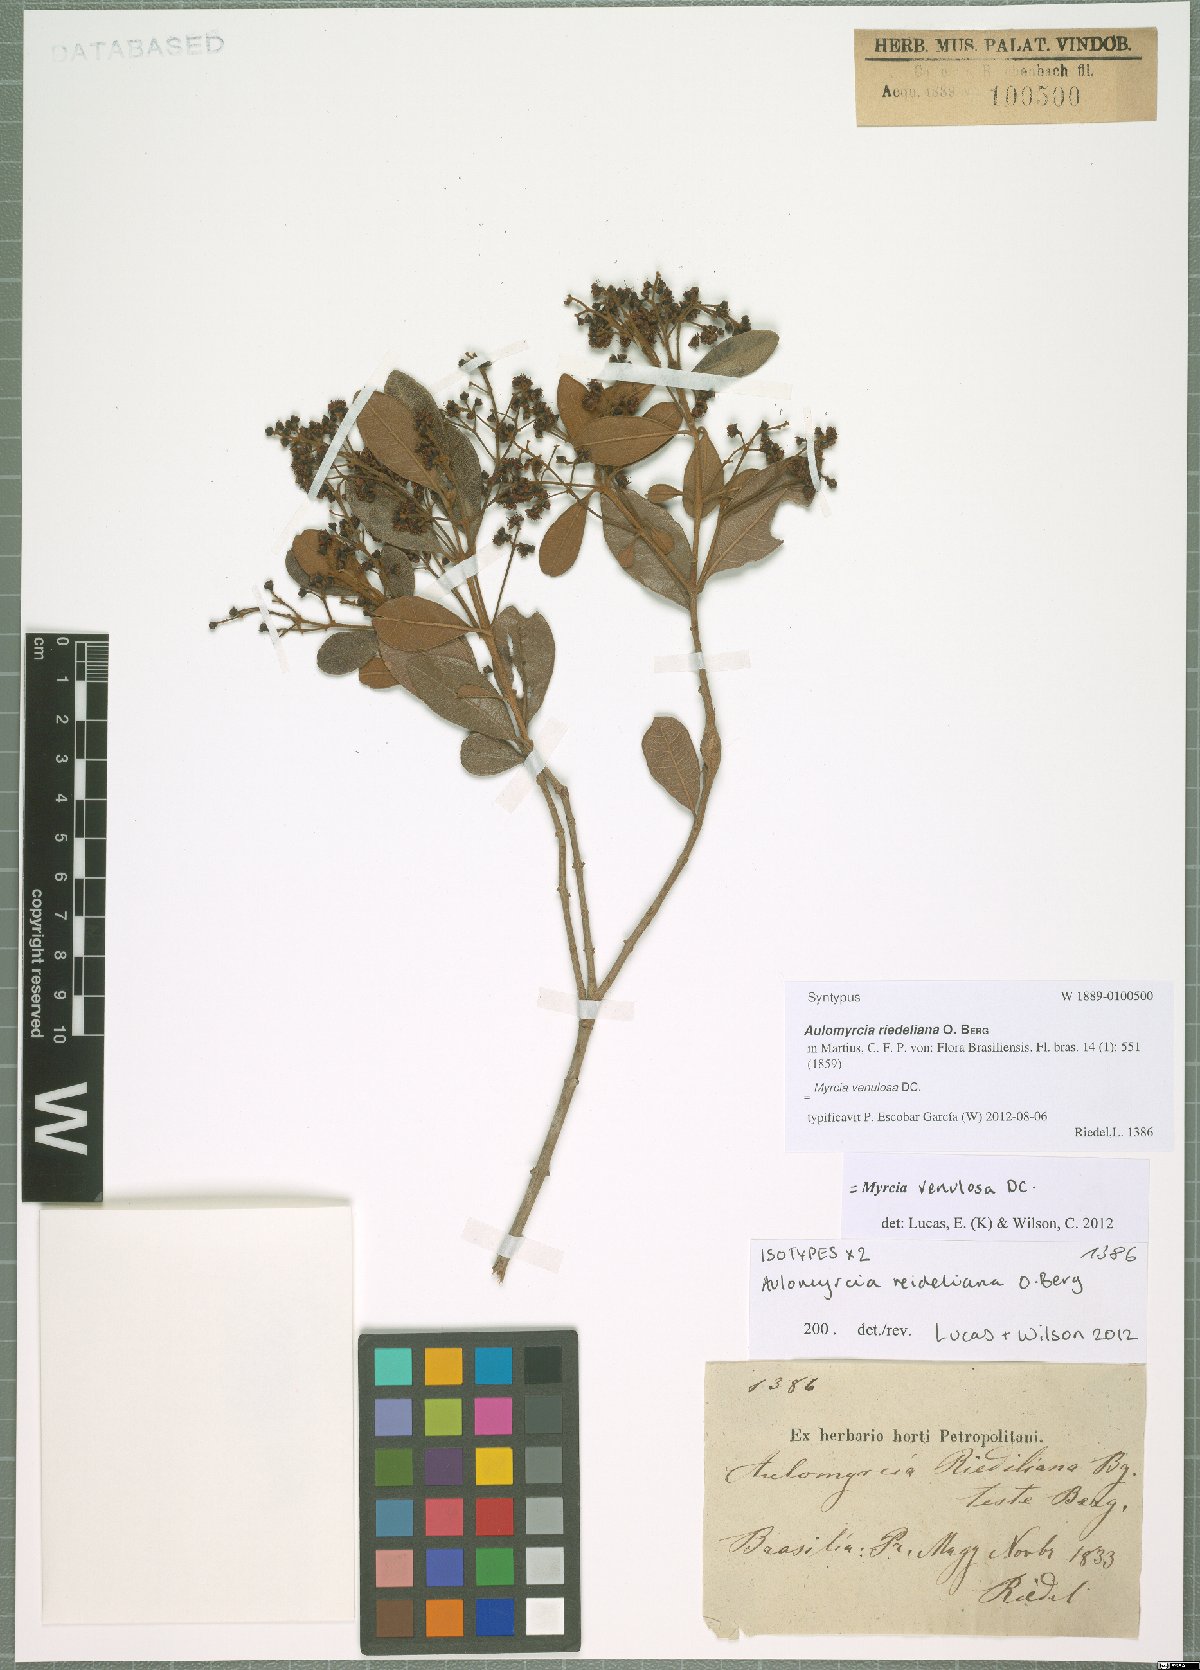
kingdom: Plantae
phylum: Tracheophyta
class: Magnoliopsida
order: Myrtales
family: Myrtaceae
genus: Myrcia
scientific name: Myrcia venulosa
